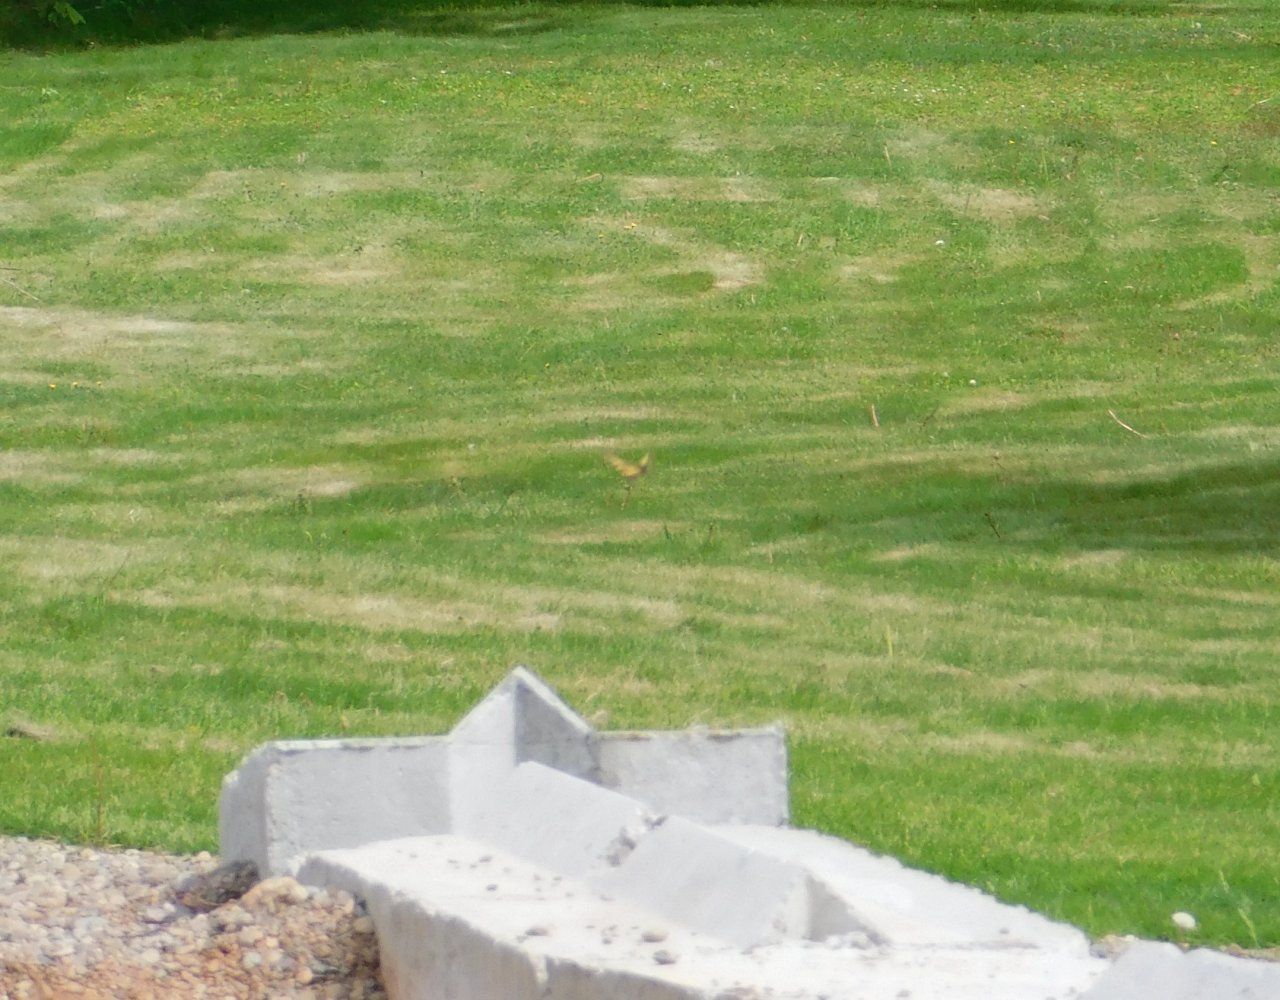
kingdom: Animalia
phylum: Arthropoda
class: Insecta
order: Lepidoptera
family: Papilionidae
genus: Pterourus
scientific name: Pterourus canadensis
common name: Canadian Tiger Swallowtail
